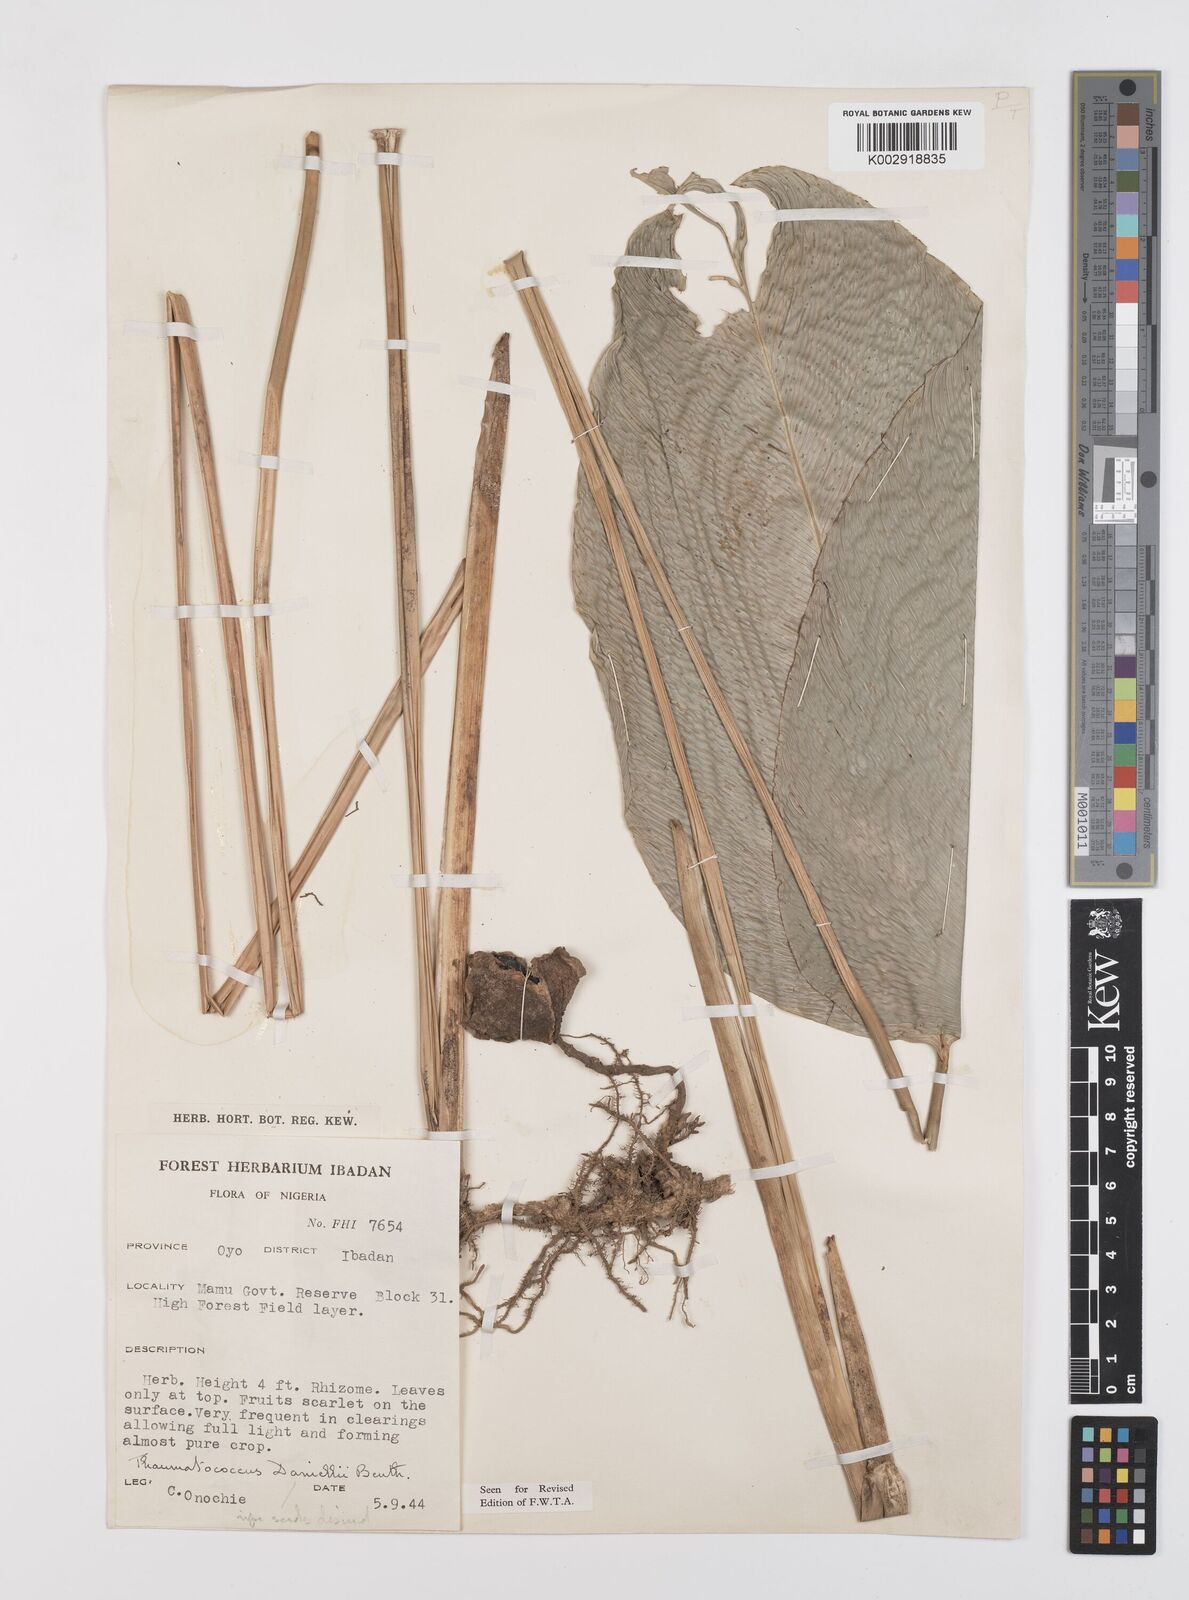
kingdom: Plantae
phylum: Tracheophyta
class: Liliopsida
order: Zingiberales
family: Marantaceae
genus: Thaumatococcus
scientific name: Thaumatococcus daniellii
